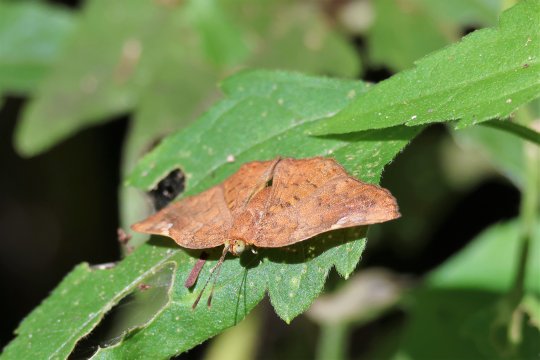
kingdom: Animalia
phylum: Arthropoda
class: Insecta
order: Lepidoptera
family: Lycaenidae
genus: Emesis
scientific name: Emesis emesia
